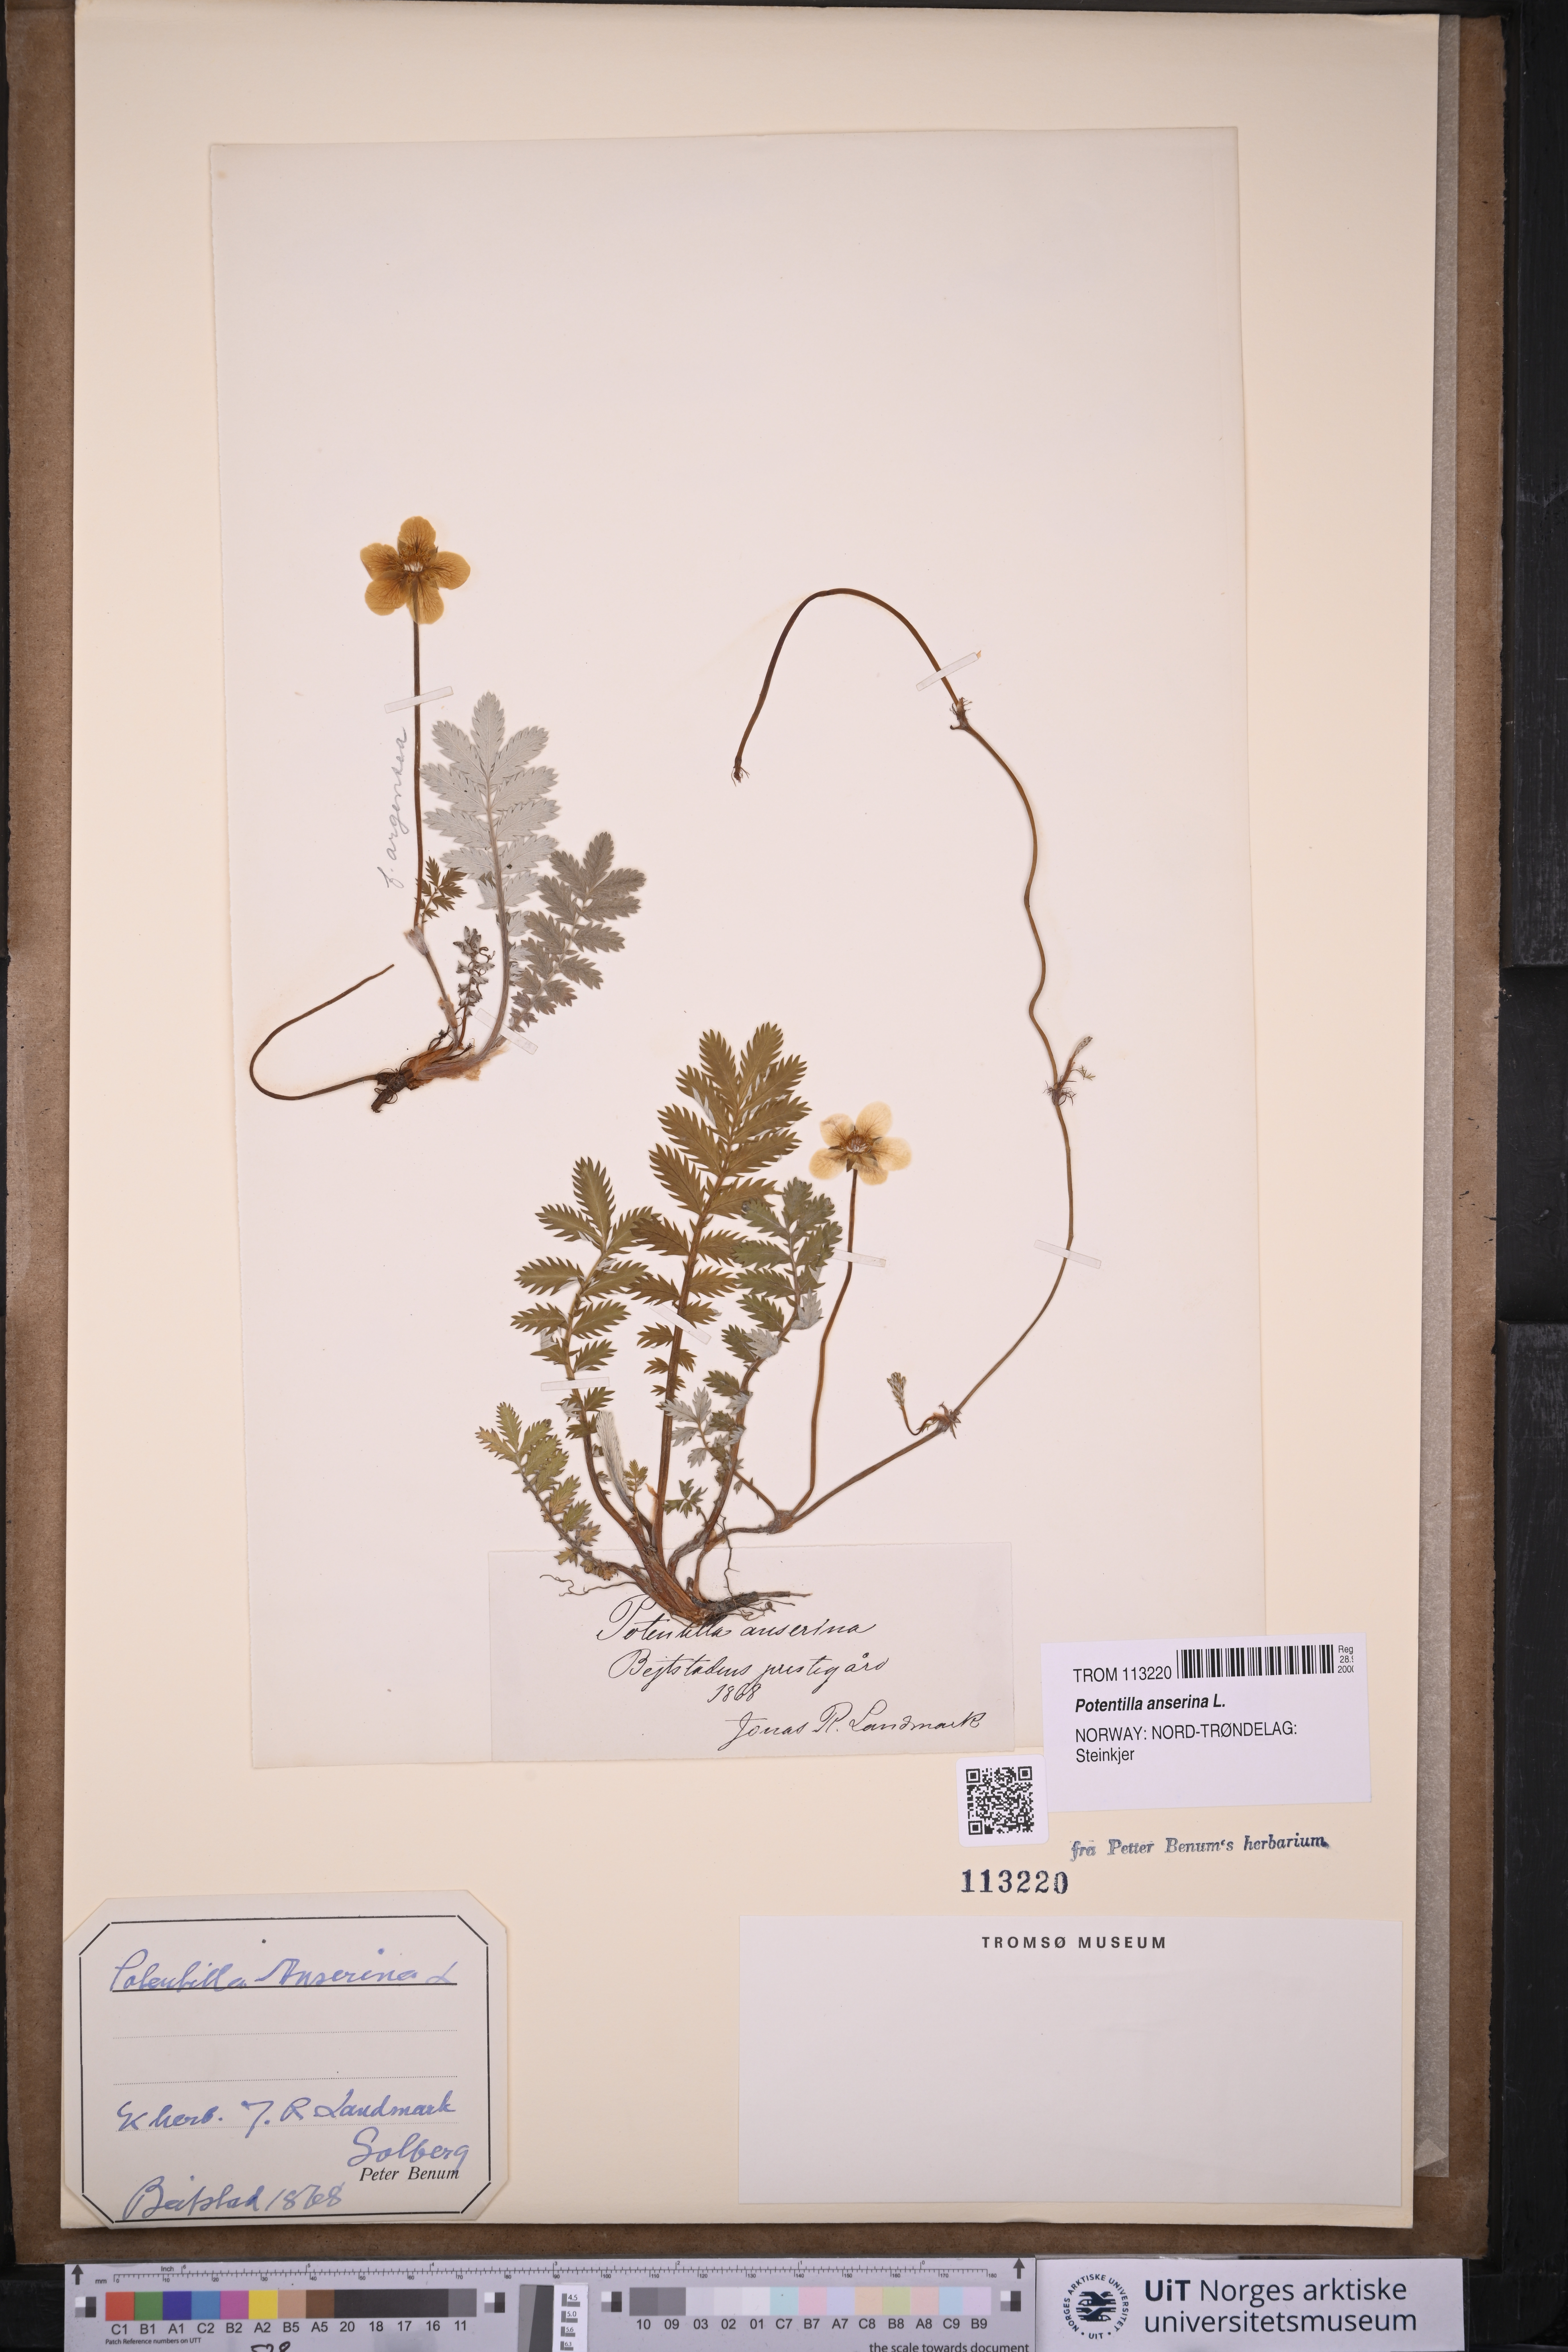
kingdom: Plantae
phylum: Tracheophyta
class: Magnoliopsida
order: Rosales
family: Rosaceae
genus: Argentina
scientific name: Argentina anserina
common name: Common silverweed
